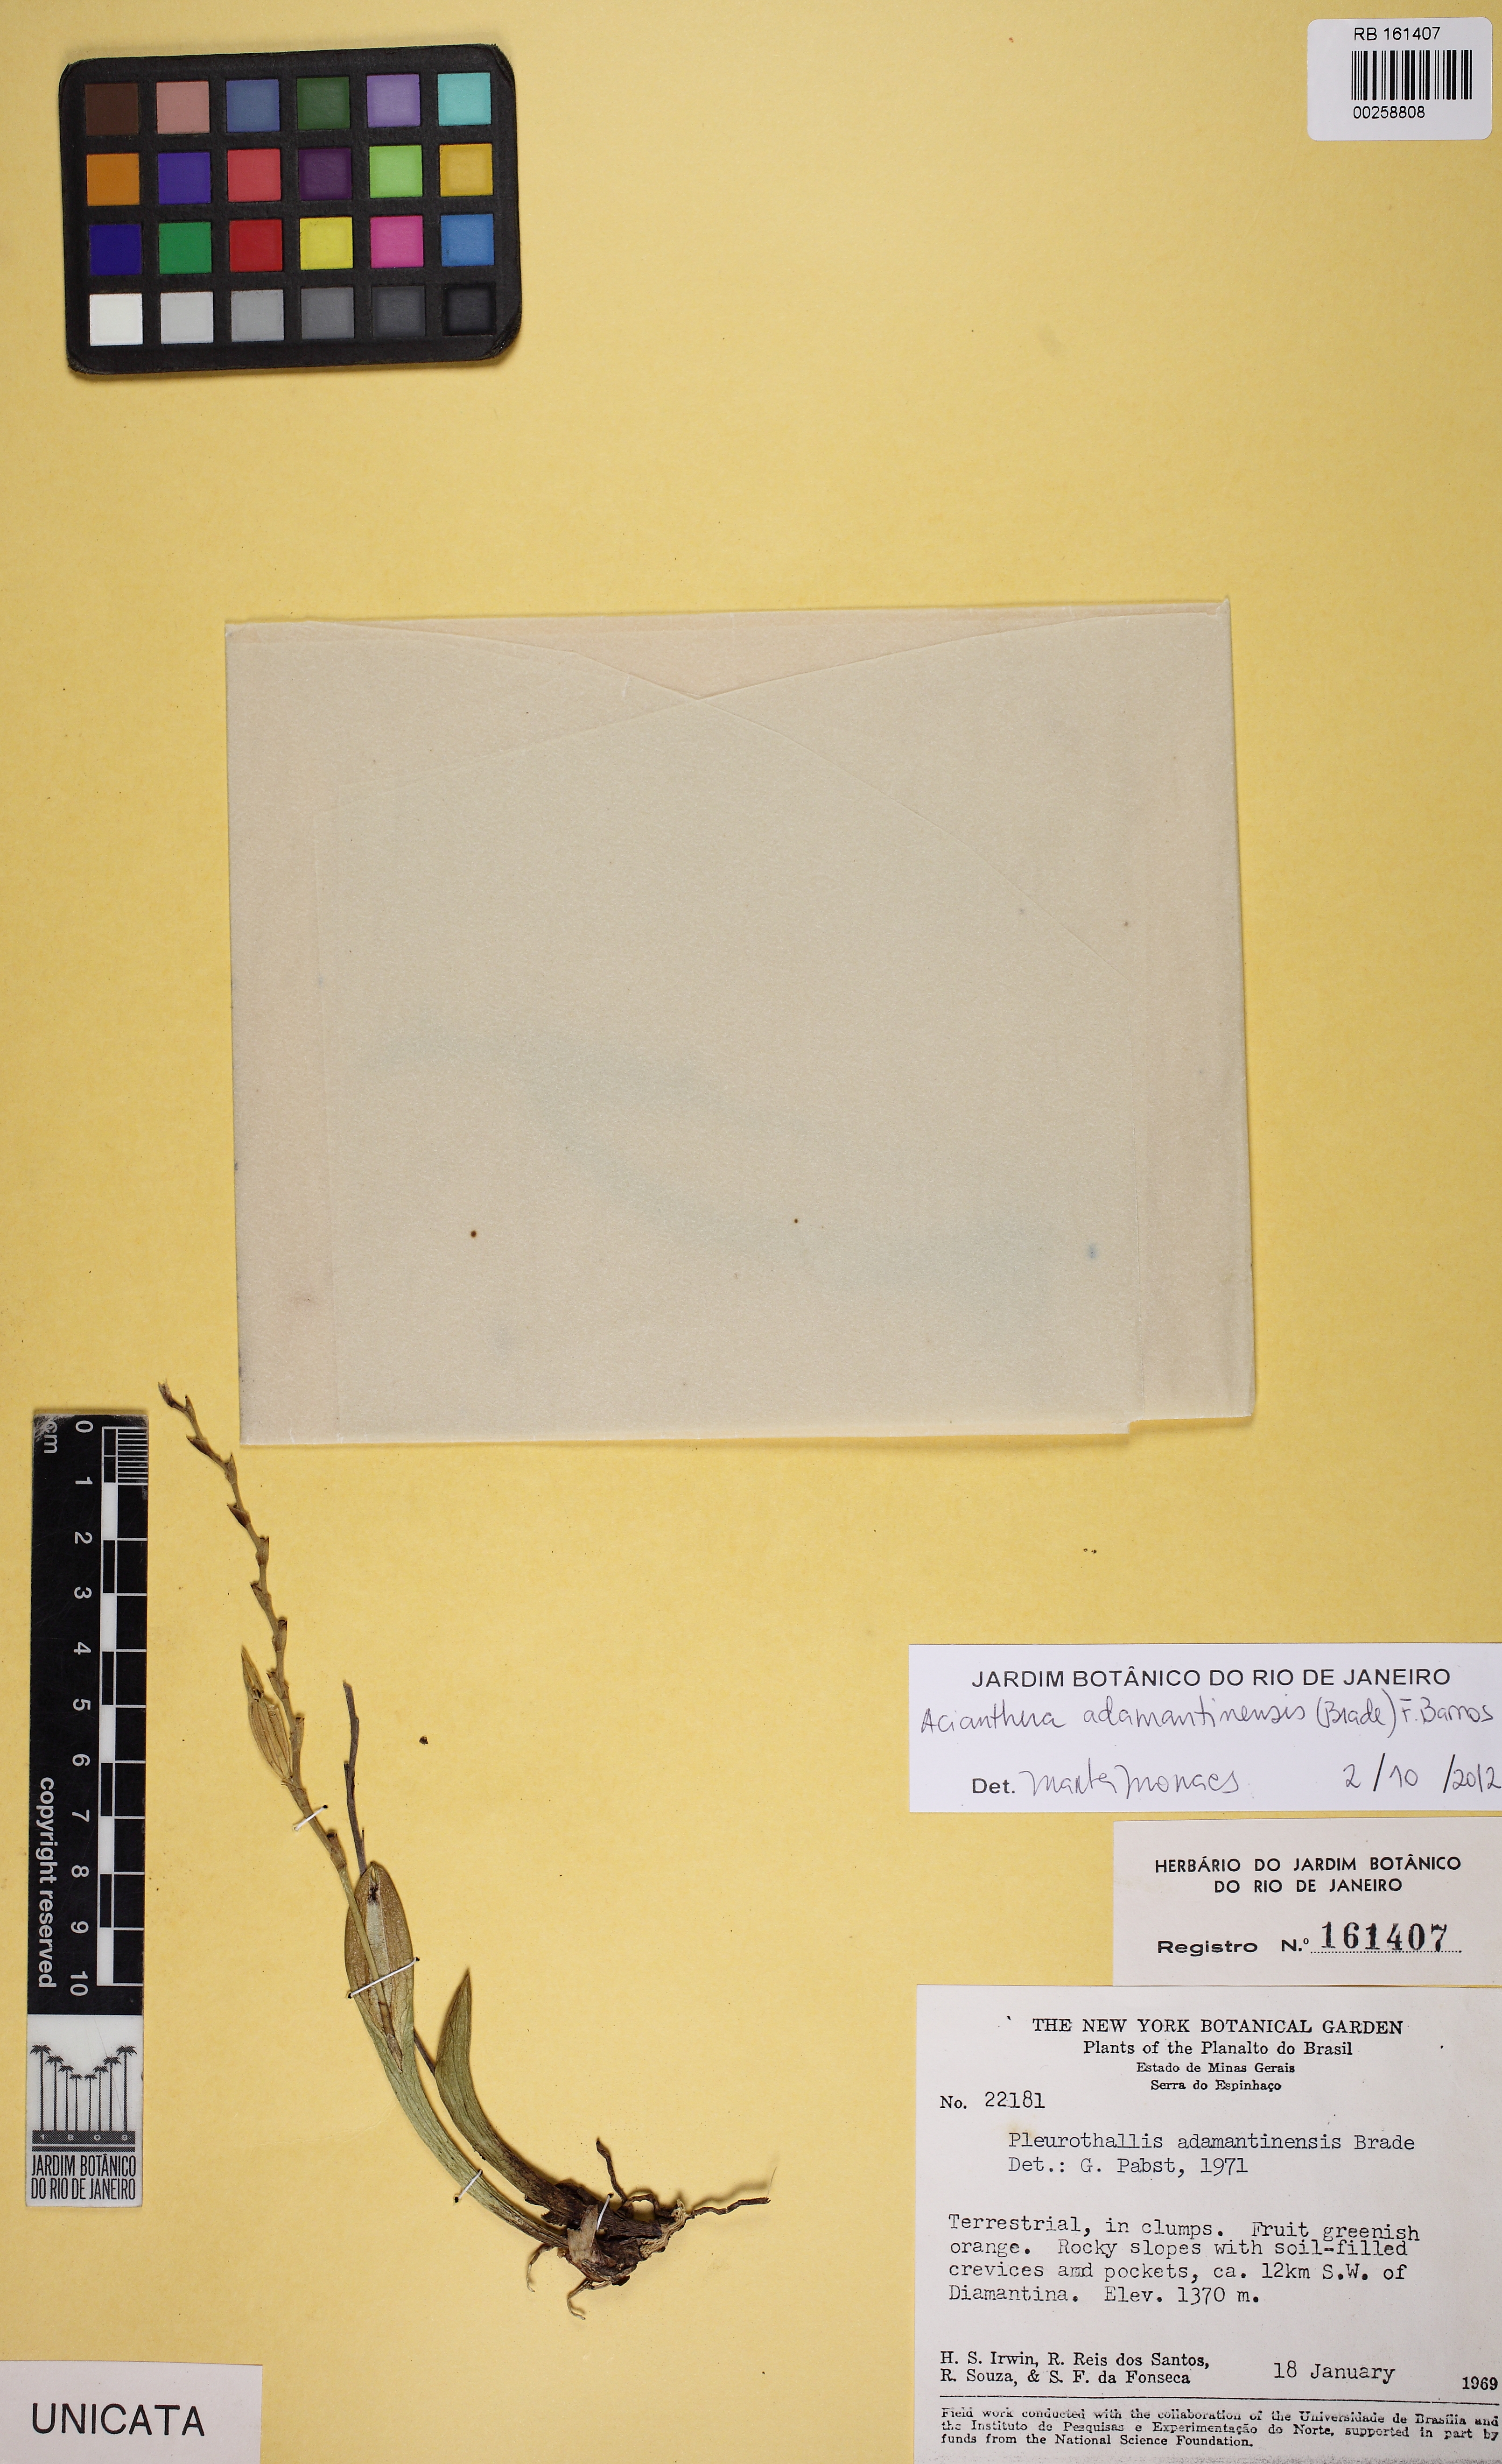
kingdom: Plantae
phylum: Tracheophyta
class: Liliopsida
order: Asparagales
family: Orchidaceae
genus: Acianthera
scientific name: Acianthera adamantinensis
